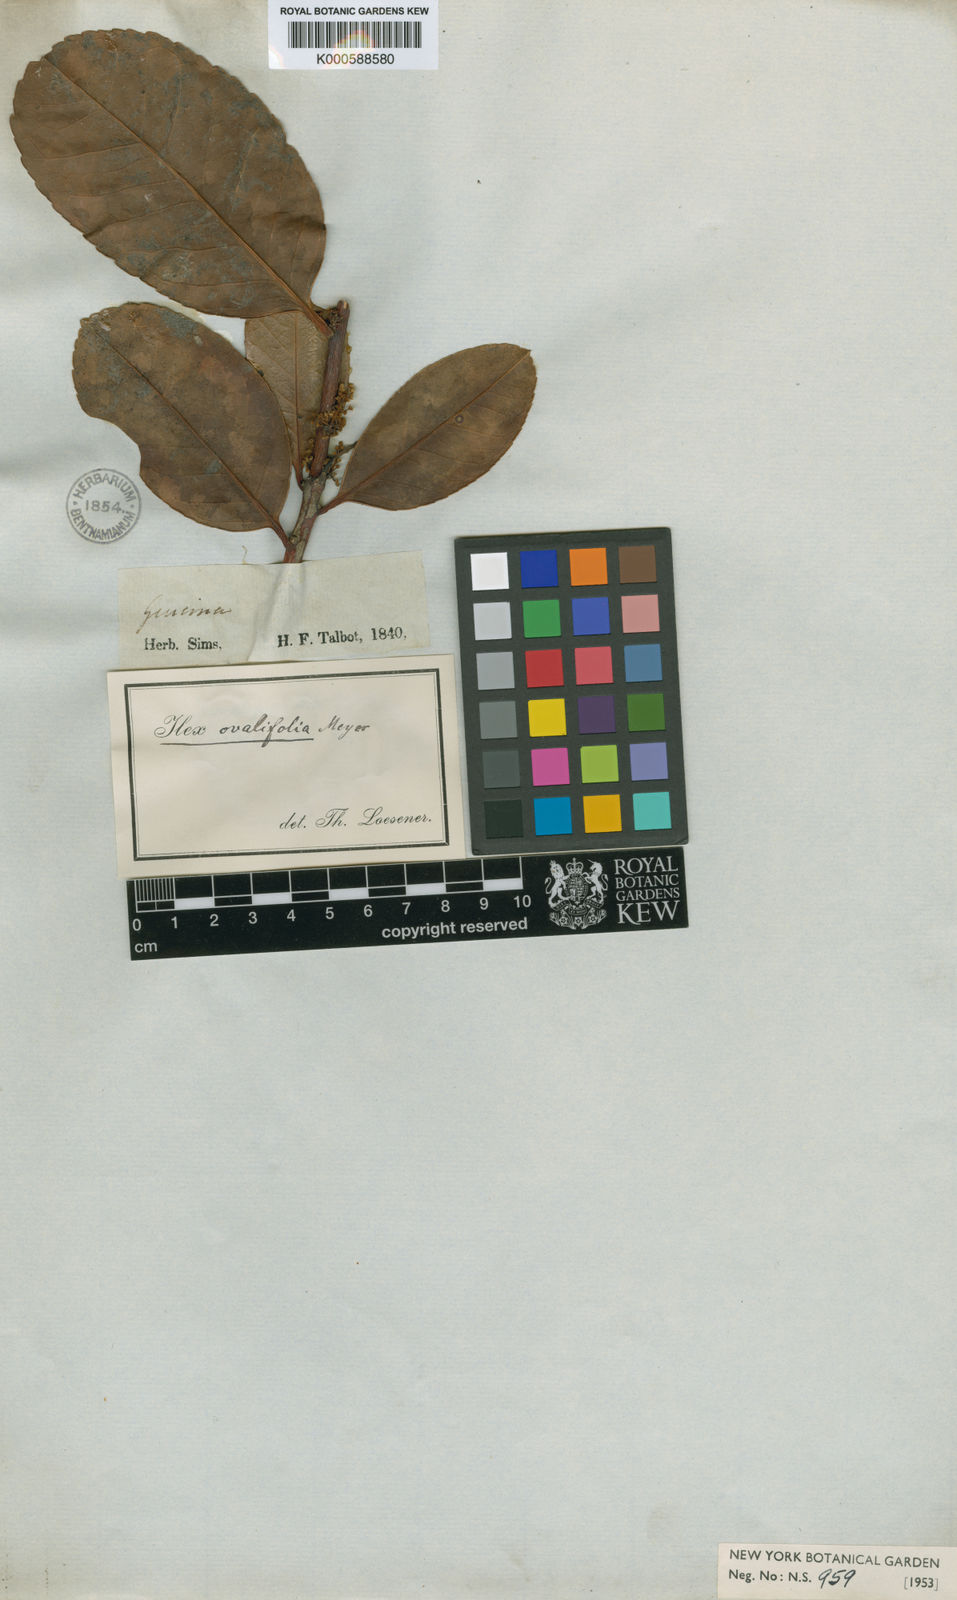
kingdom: Plantae
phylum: Tracheophyta
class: Magnoliopsida
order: Aquifoliales
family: Aquifoliaceae
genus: Ilex
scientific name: Ilex dumosa
